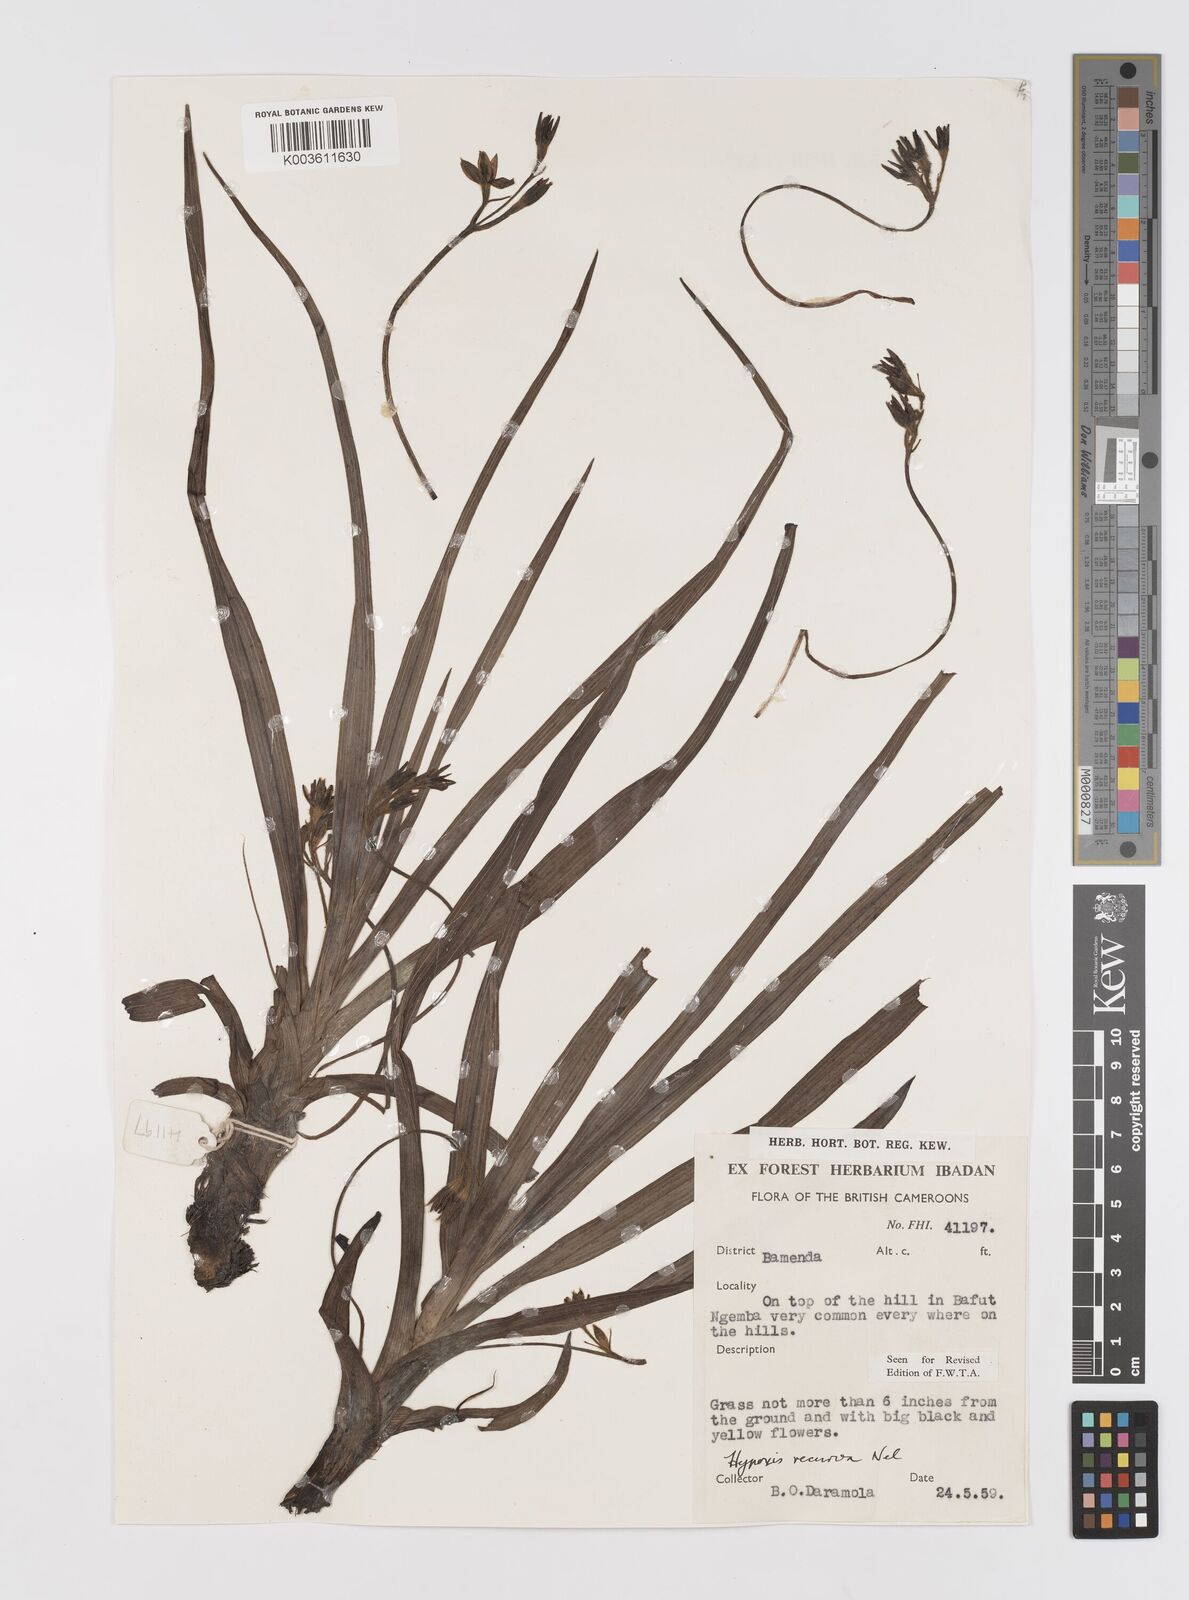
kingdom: Plantae
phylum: Tracheophyta
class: Liliopsida
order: Asparagales
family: Hypoxidaceae
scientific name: Hypoxidaceae
